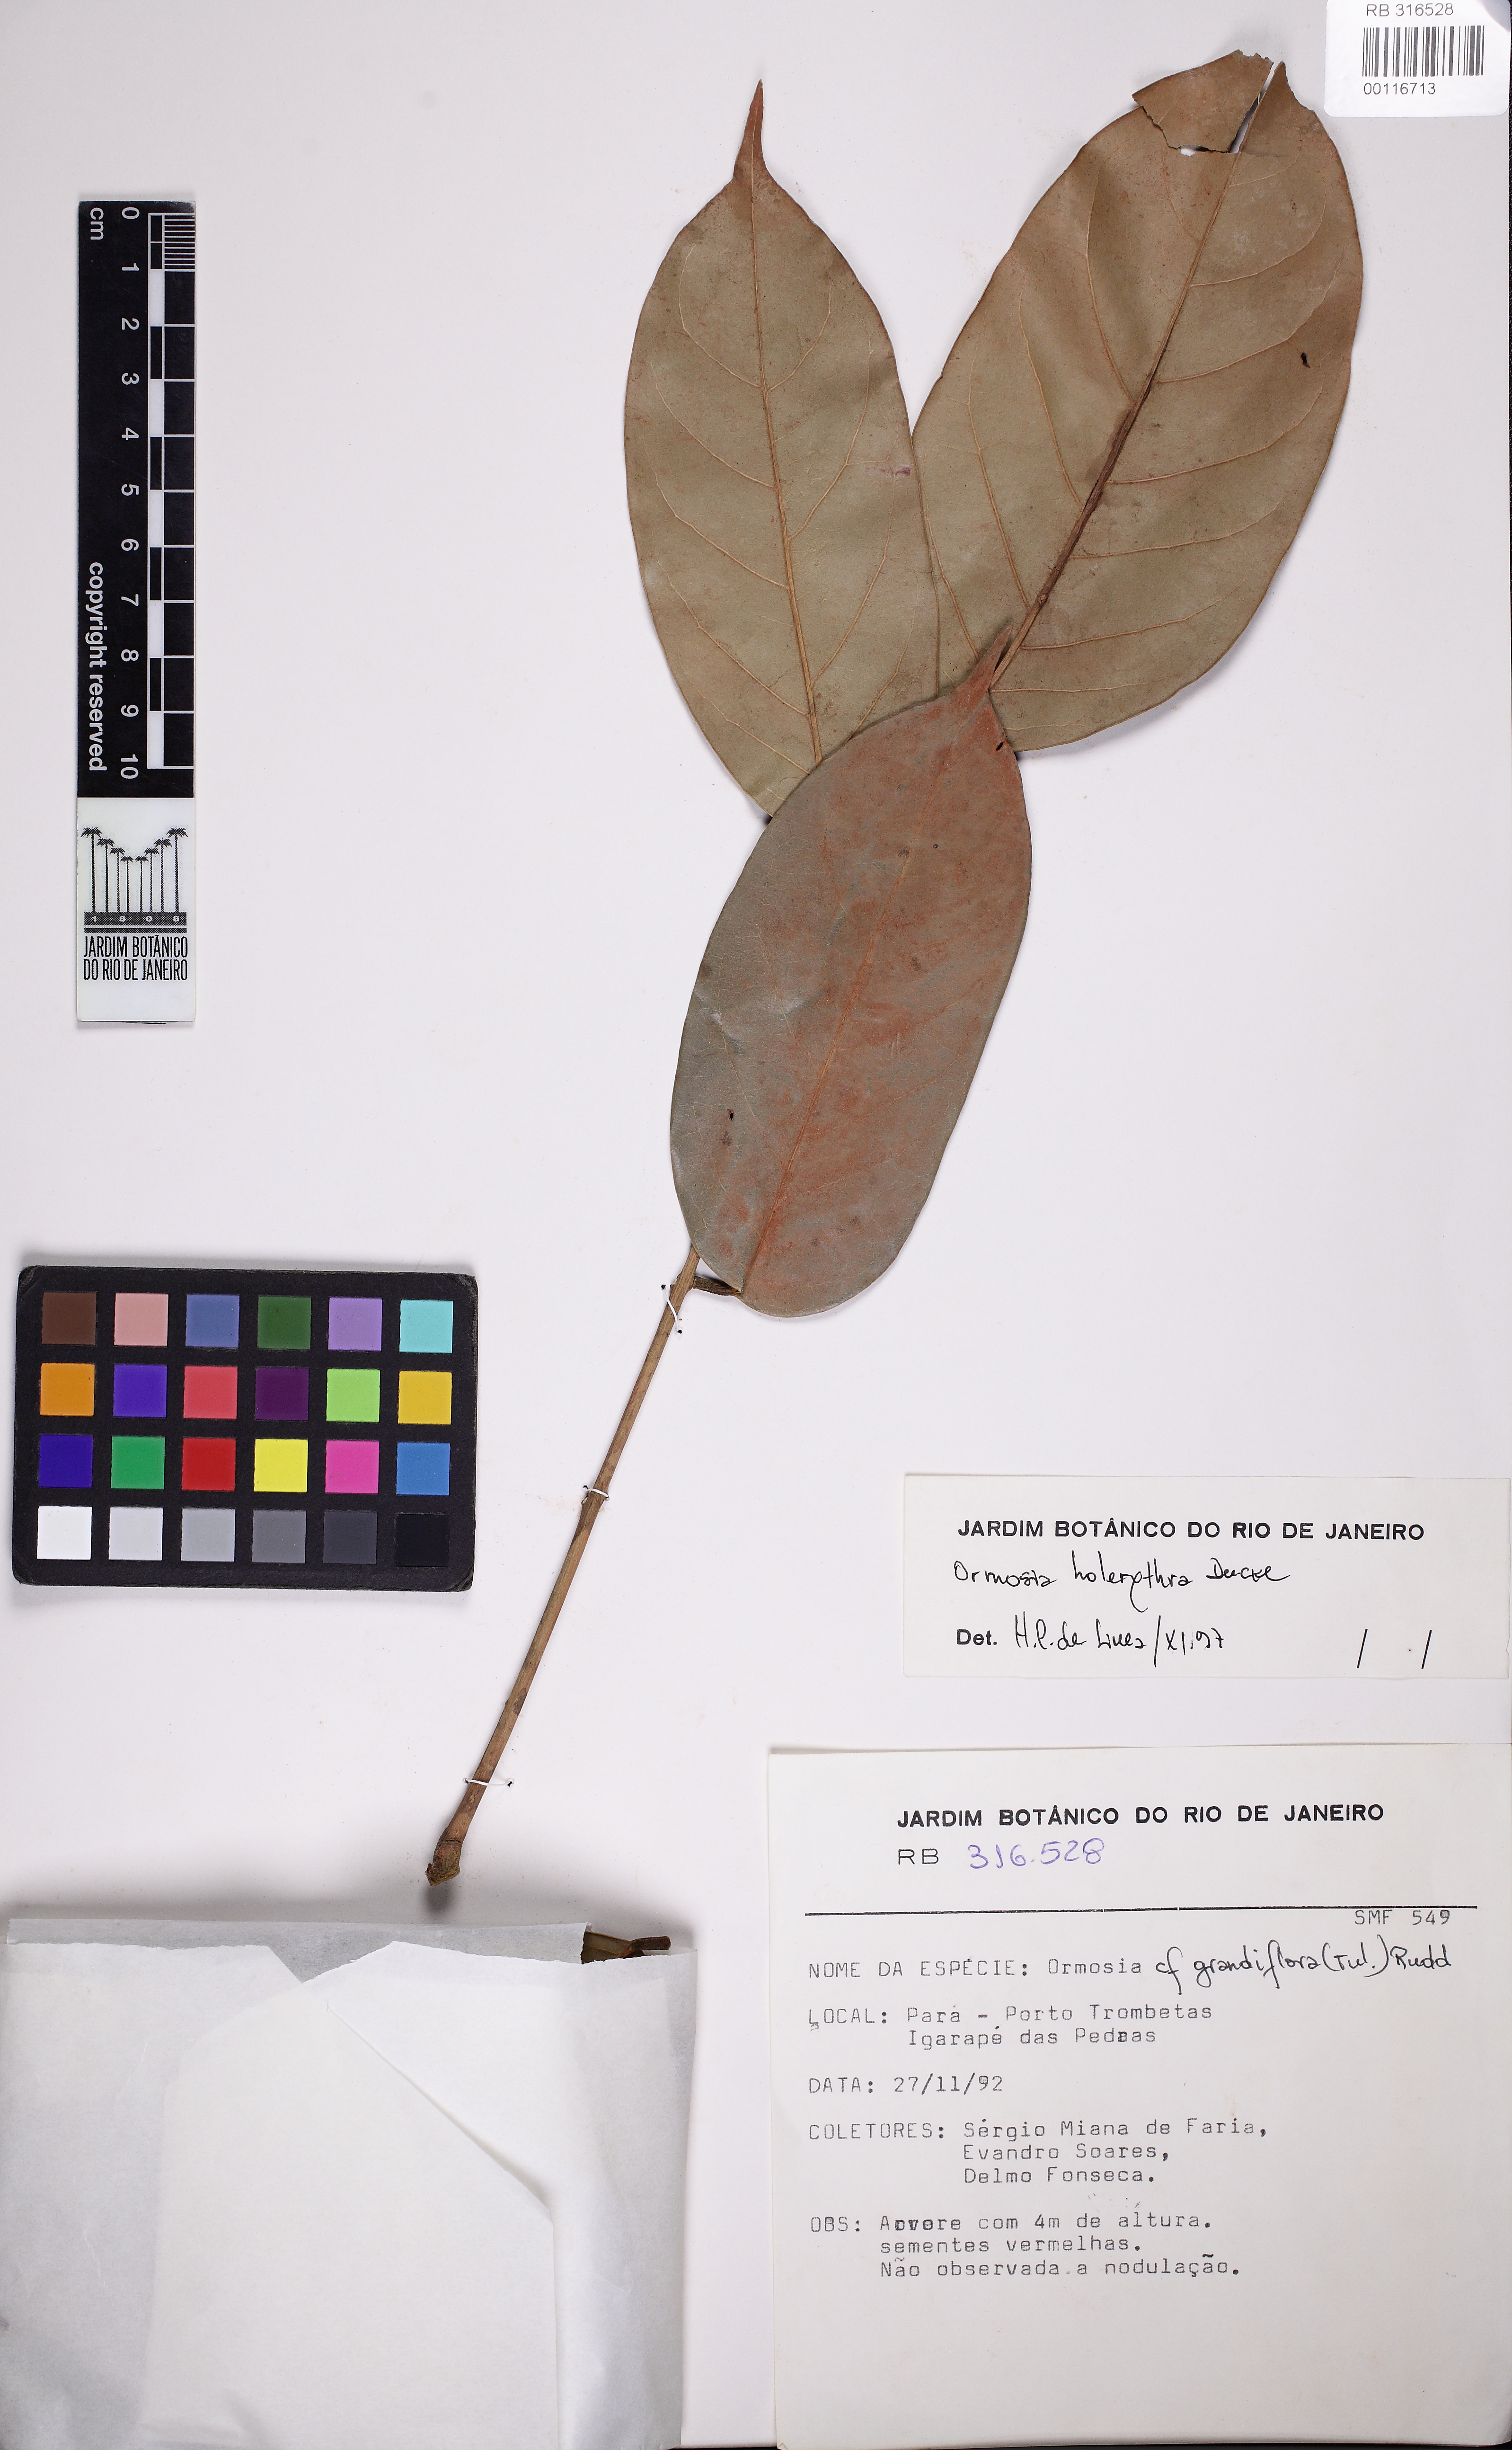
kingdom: Plantae
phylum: Tracheophyta
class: Magnoliopsida
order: Fabales
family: Fabaceae
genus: Ormosia
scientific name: Ormosia holerythra
